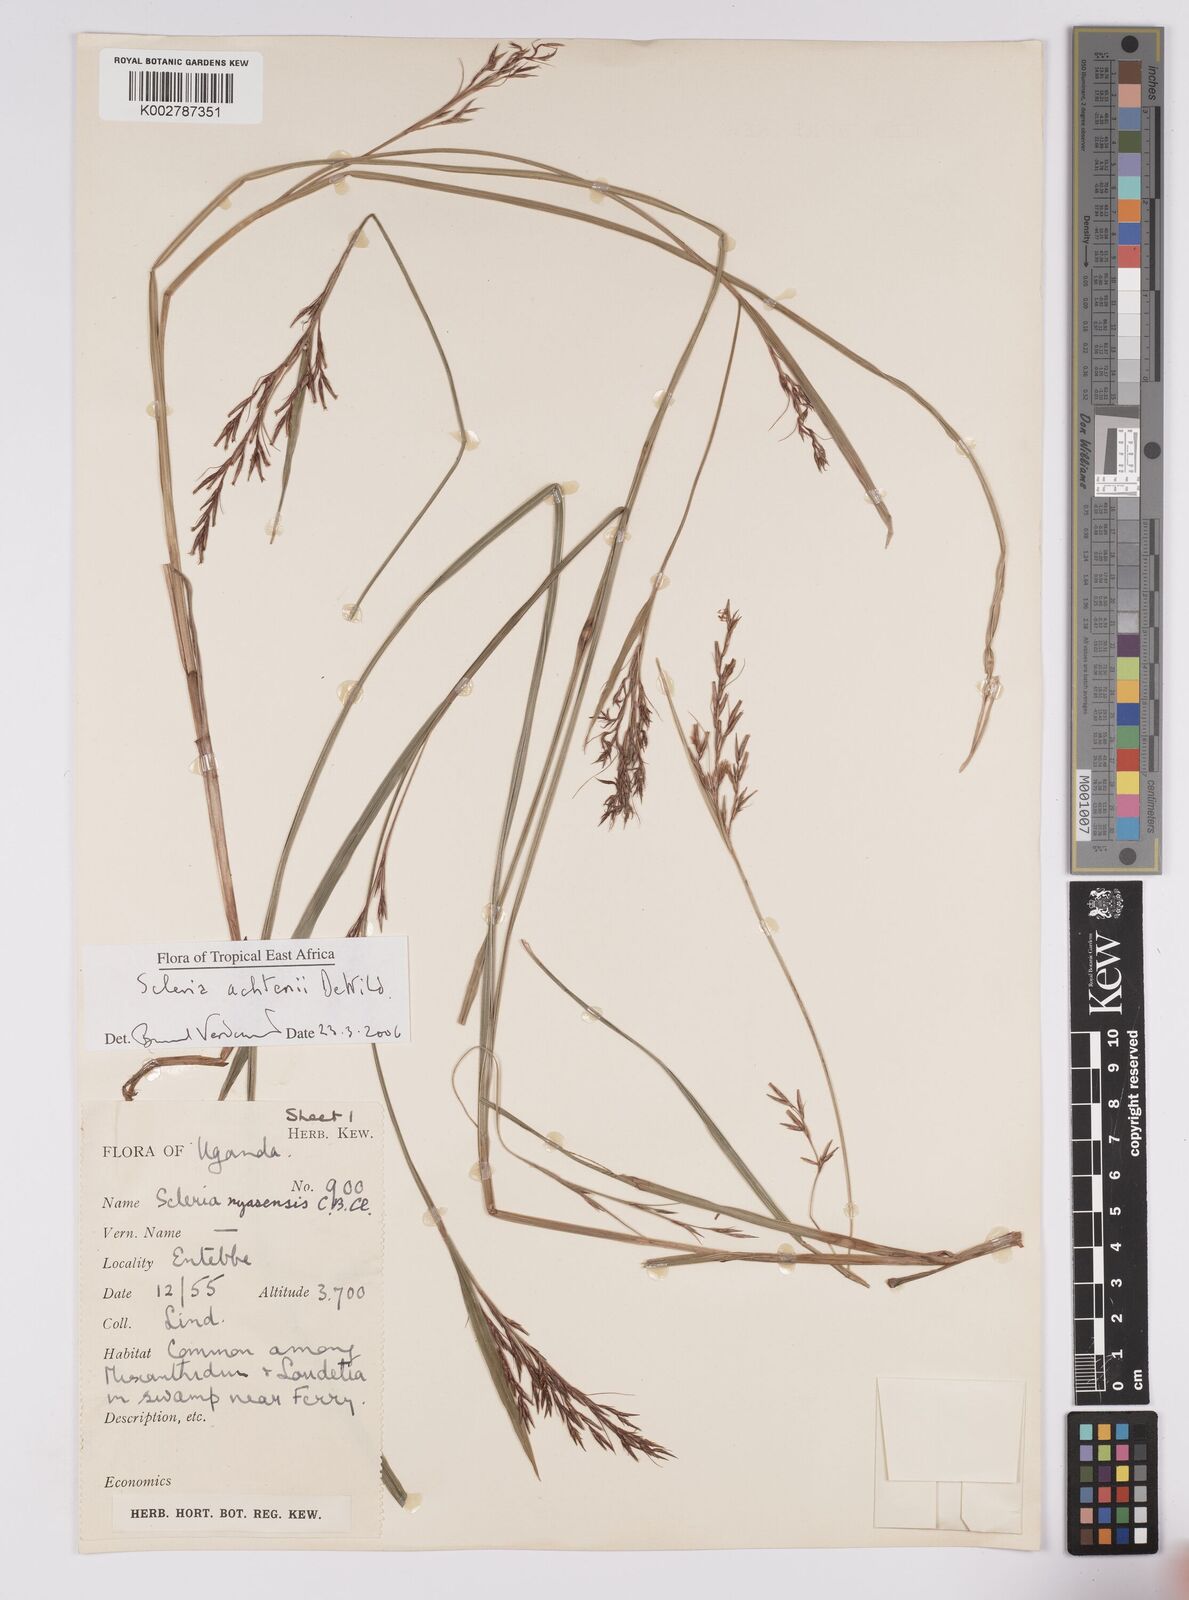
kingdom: Plantae
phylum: Tracheophyta
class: Liliopsida
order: Poales
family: Cyperaceae
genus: Scleria
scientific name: Scleria achtenii
